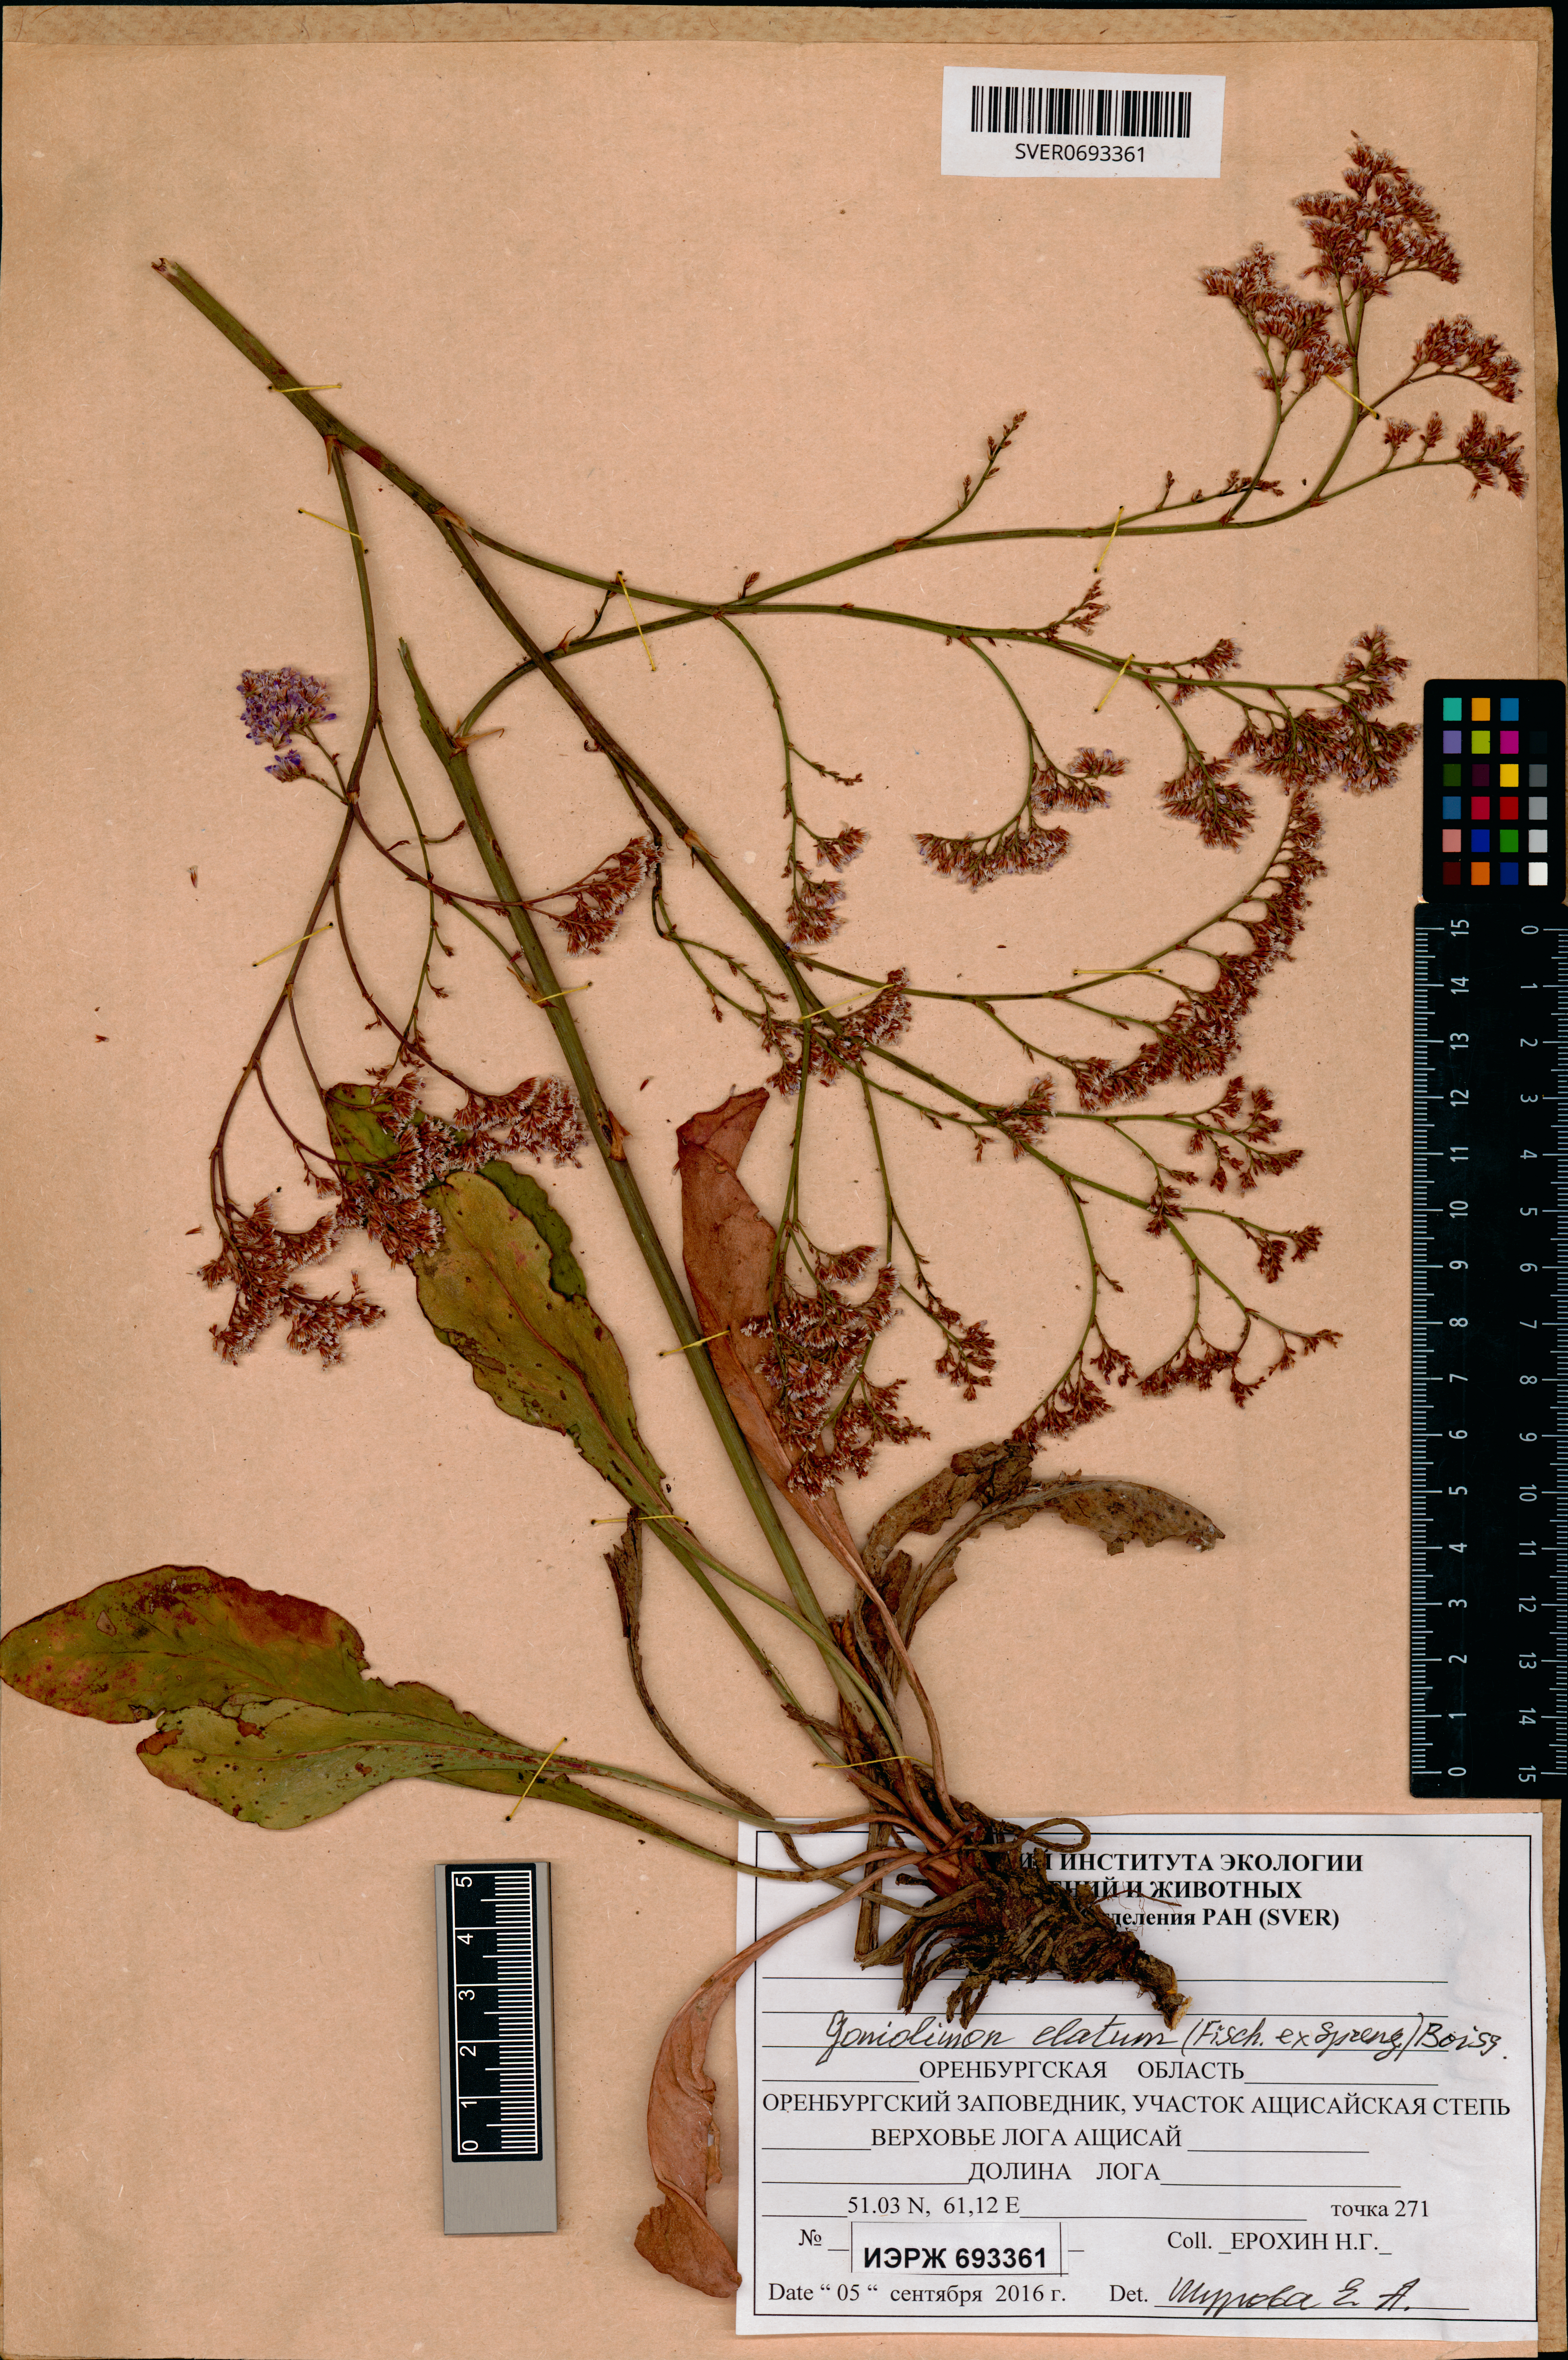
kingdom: Plantae
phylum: Tracheophyta
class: Magnoliopsida
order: Caryophyllales
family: Plumbaginaceae
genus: Goniolimon
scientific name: Goniolimon elatum
